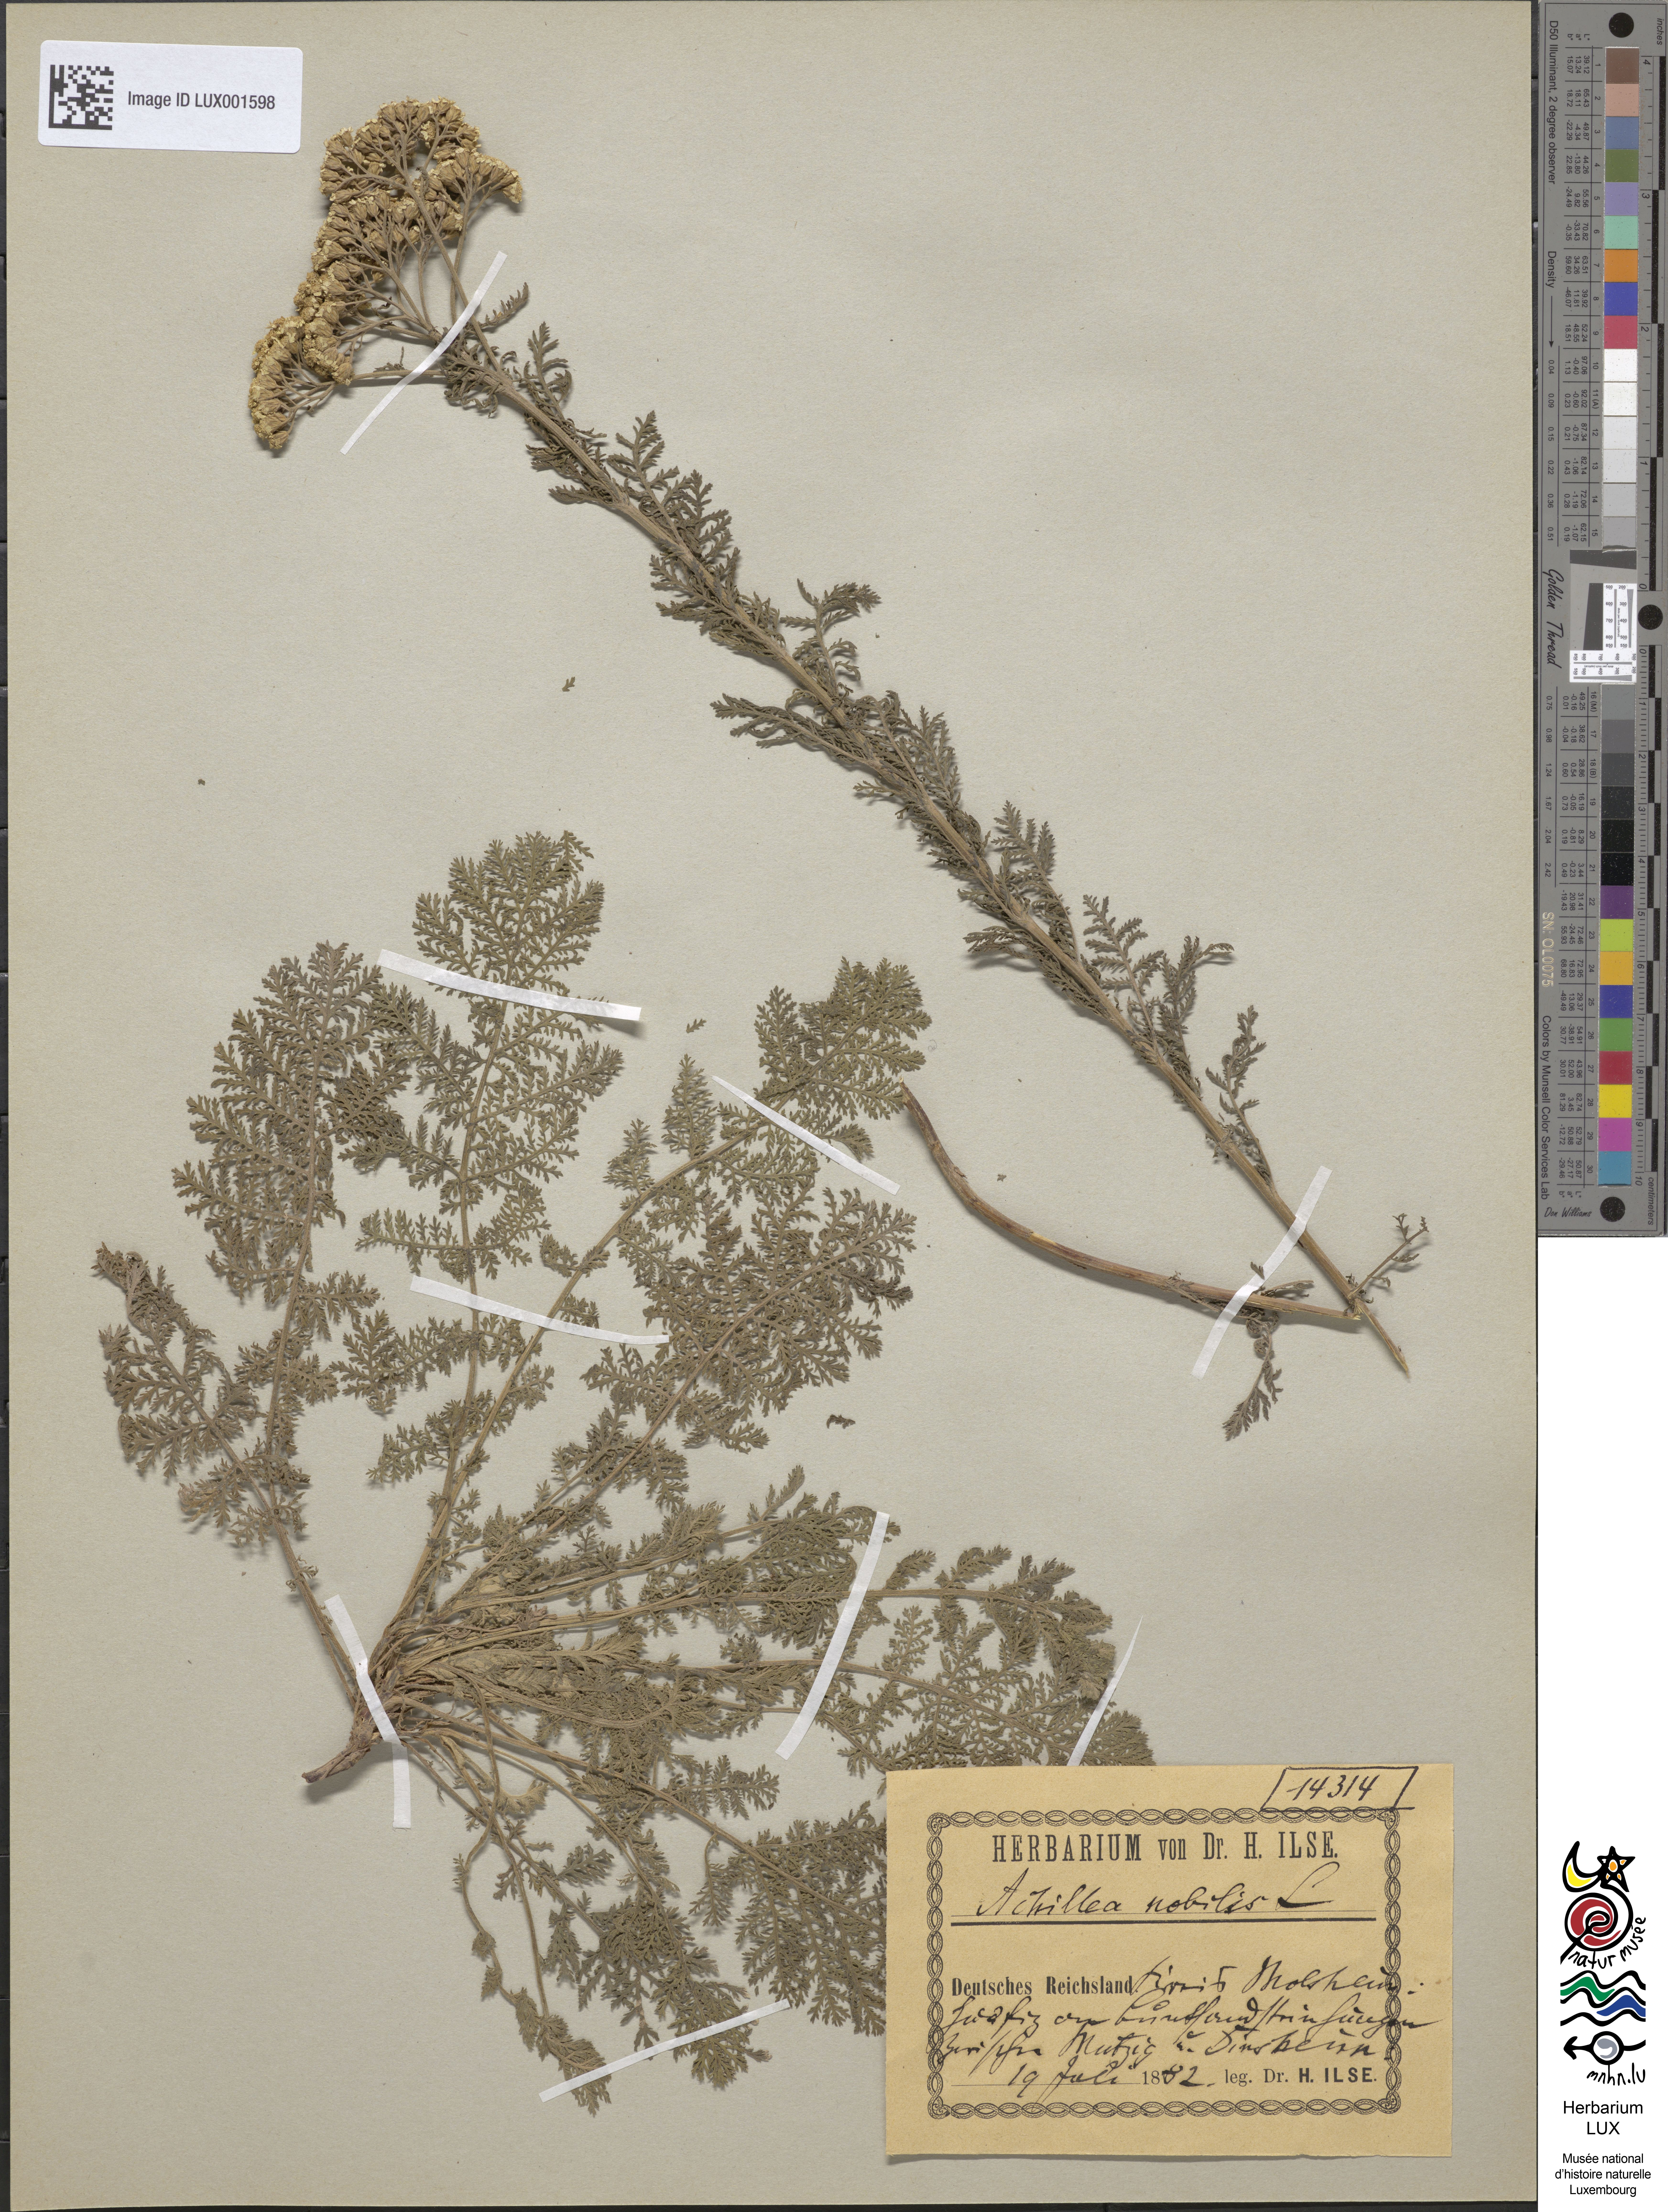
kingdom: Plantae
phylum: Tracheophyta
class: Magnoliopsida
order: Asterales
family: Asteraceae
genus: Achillea
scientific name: Achillea nobilis
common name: Noble yarrow
